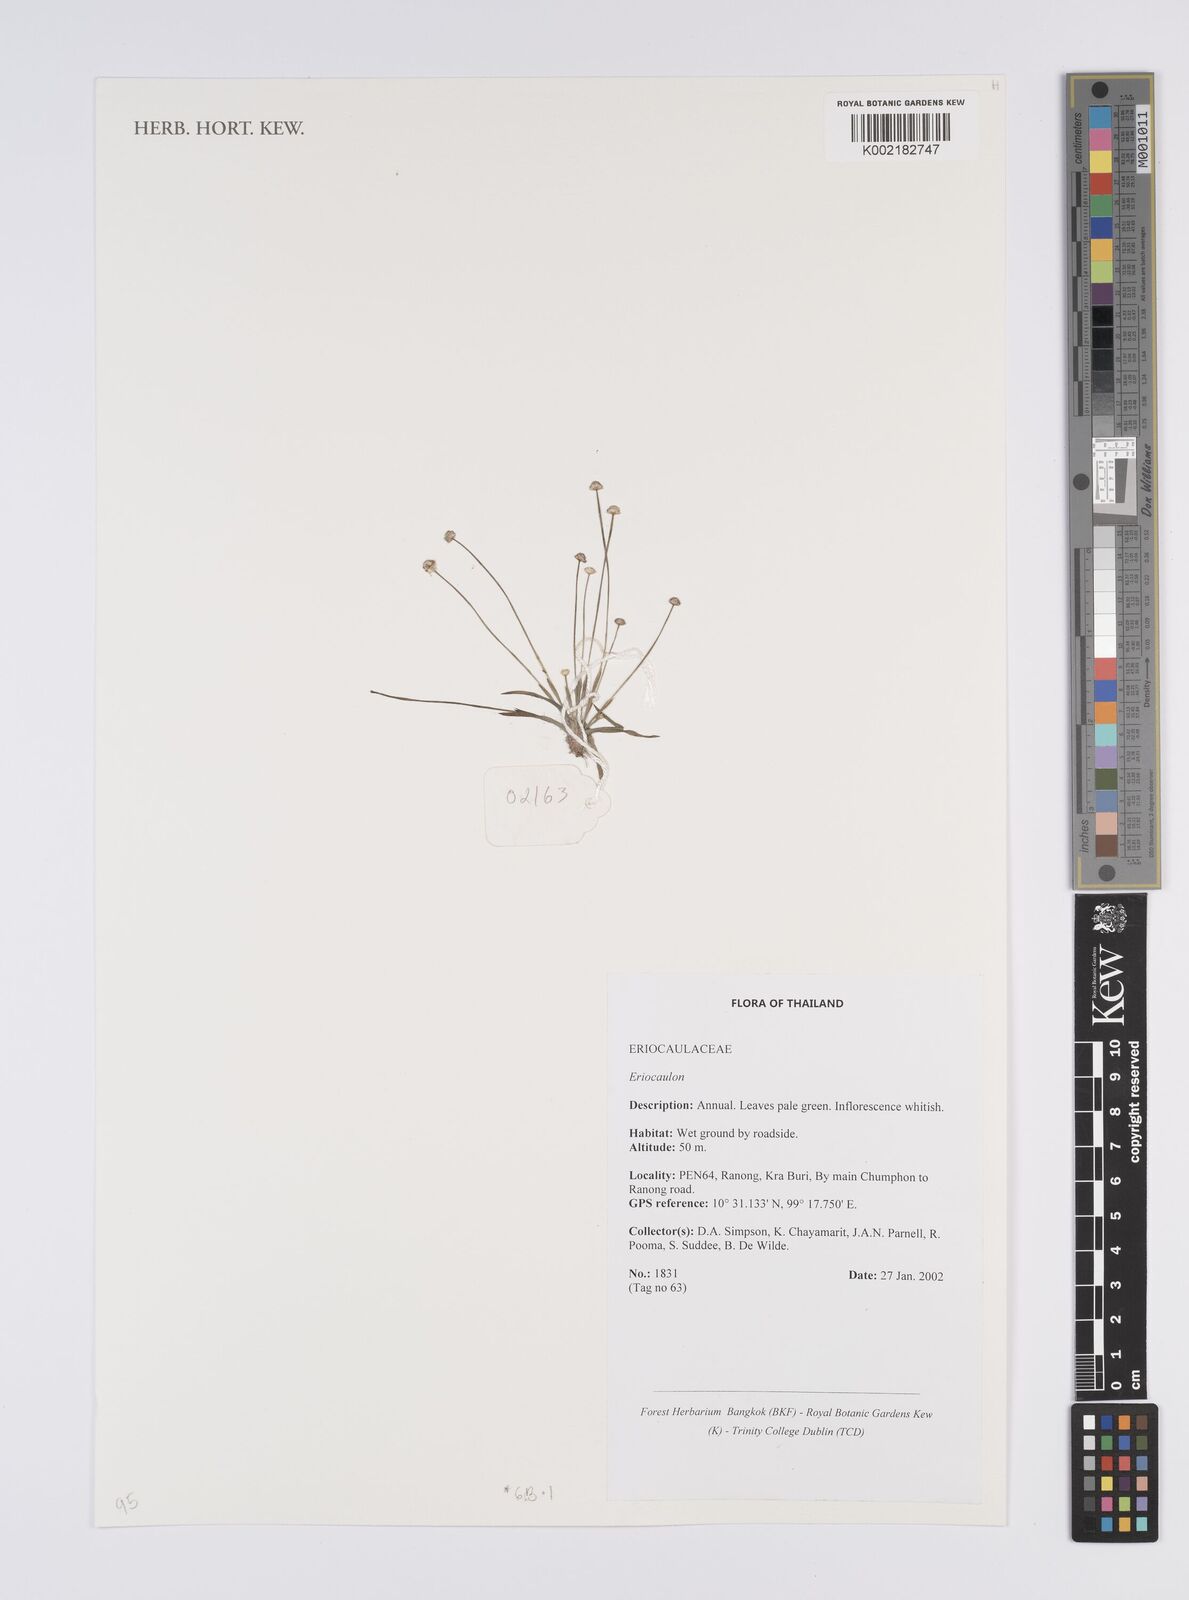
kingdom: Plantae
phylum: Tracheophyta
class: Liliopsida
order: Poales
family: Eriocaulaceae
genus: Eriocaulon
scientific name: Eriocaulon
